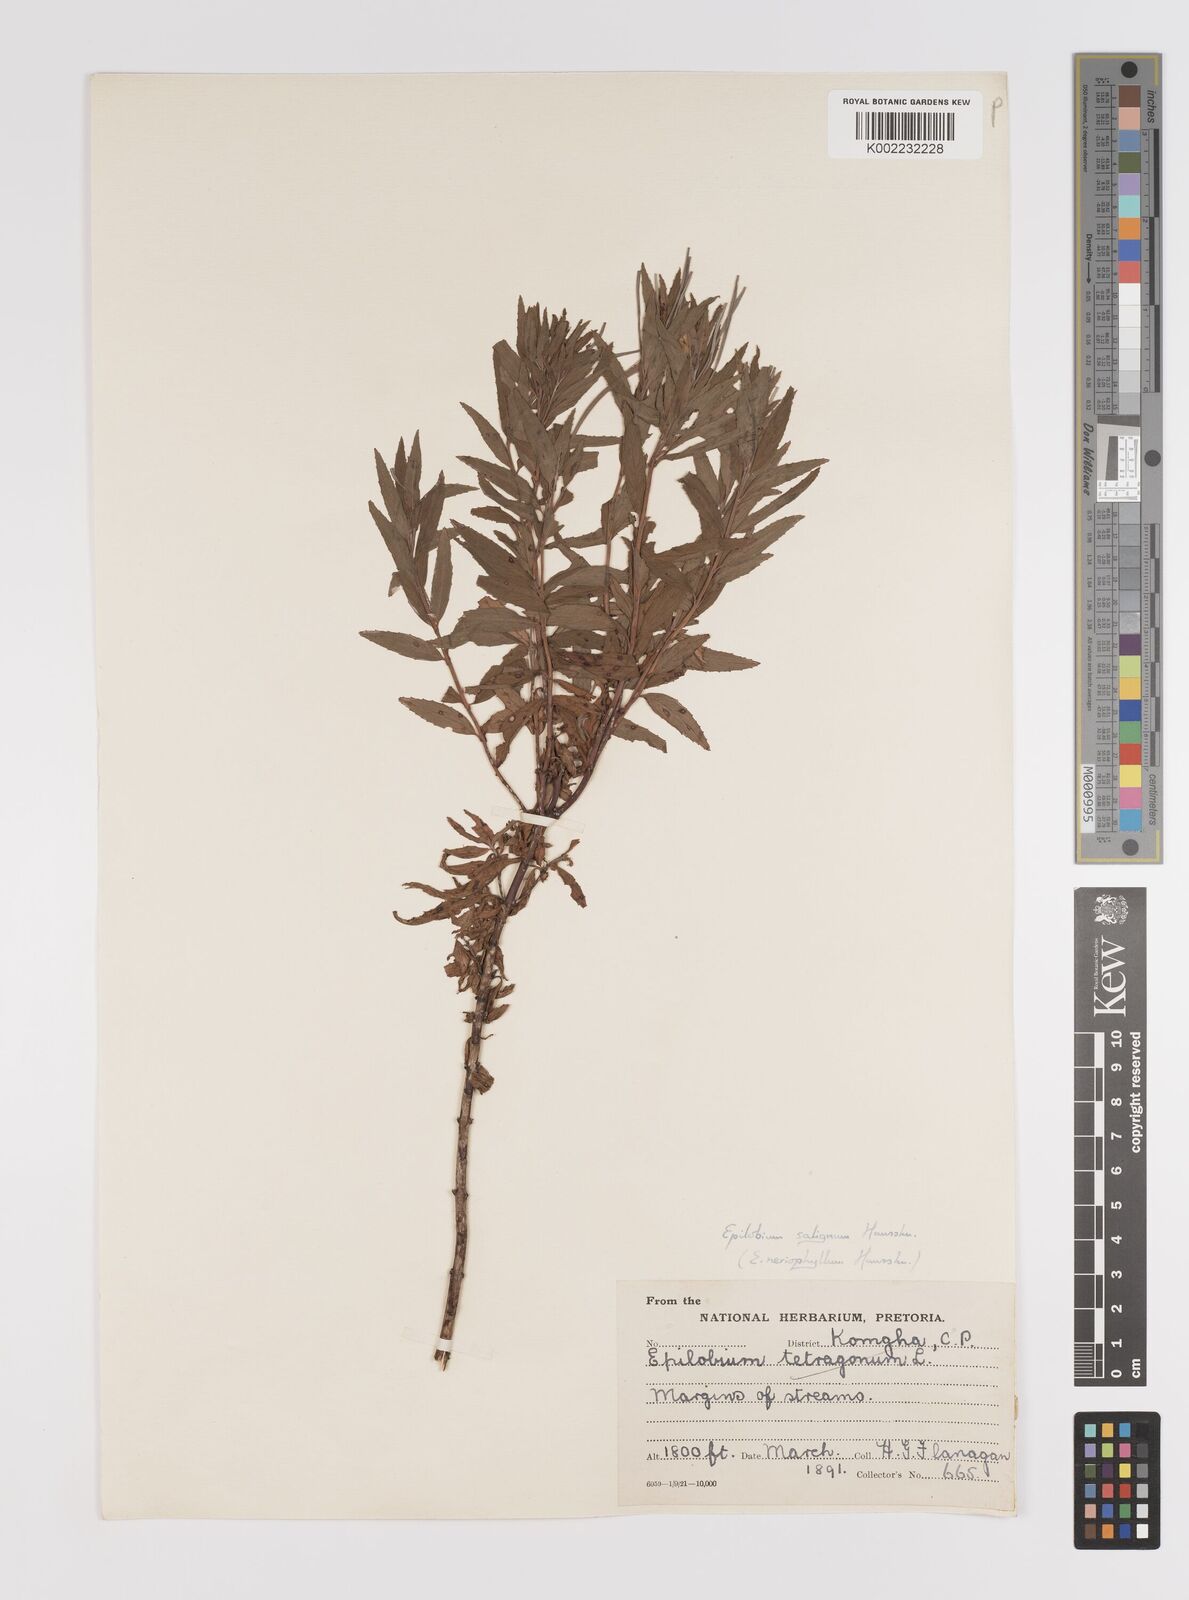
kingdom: Plantae
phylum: Tracheophyta
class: Magnoliopsida
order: Myrtales
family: Onagraceae
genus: Epilobium
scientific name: Epilobium salignum
